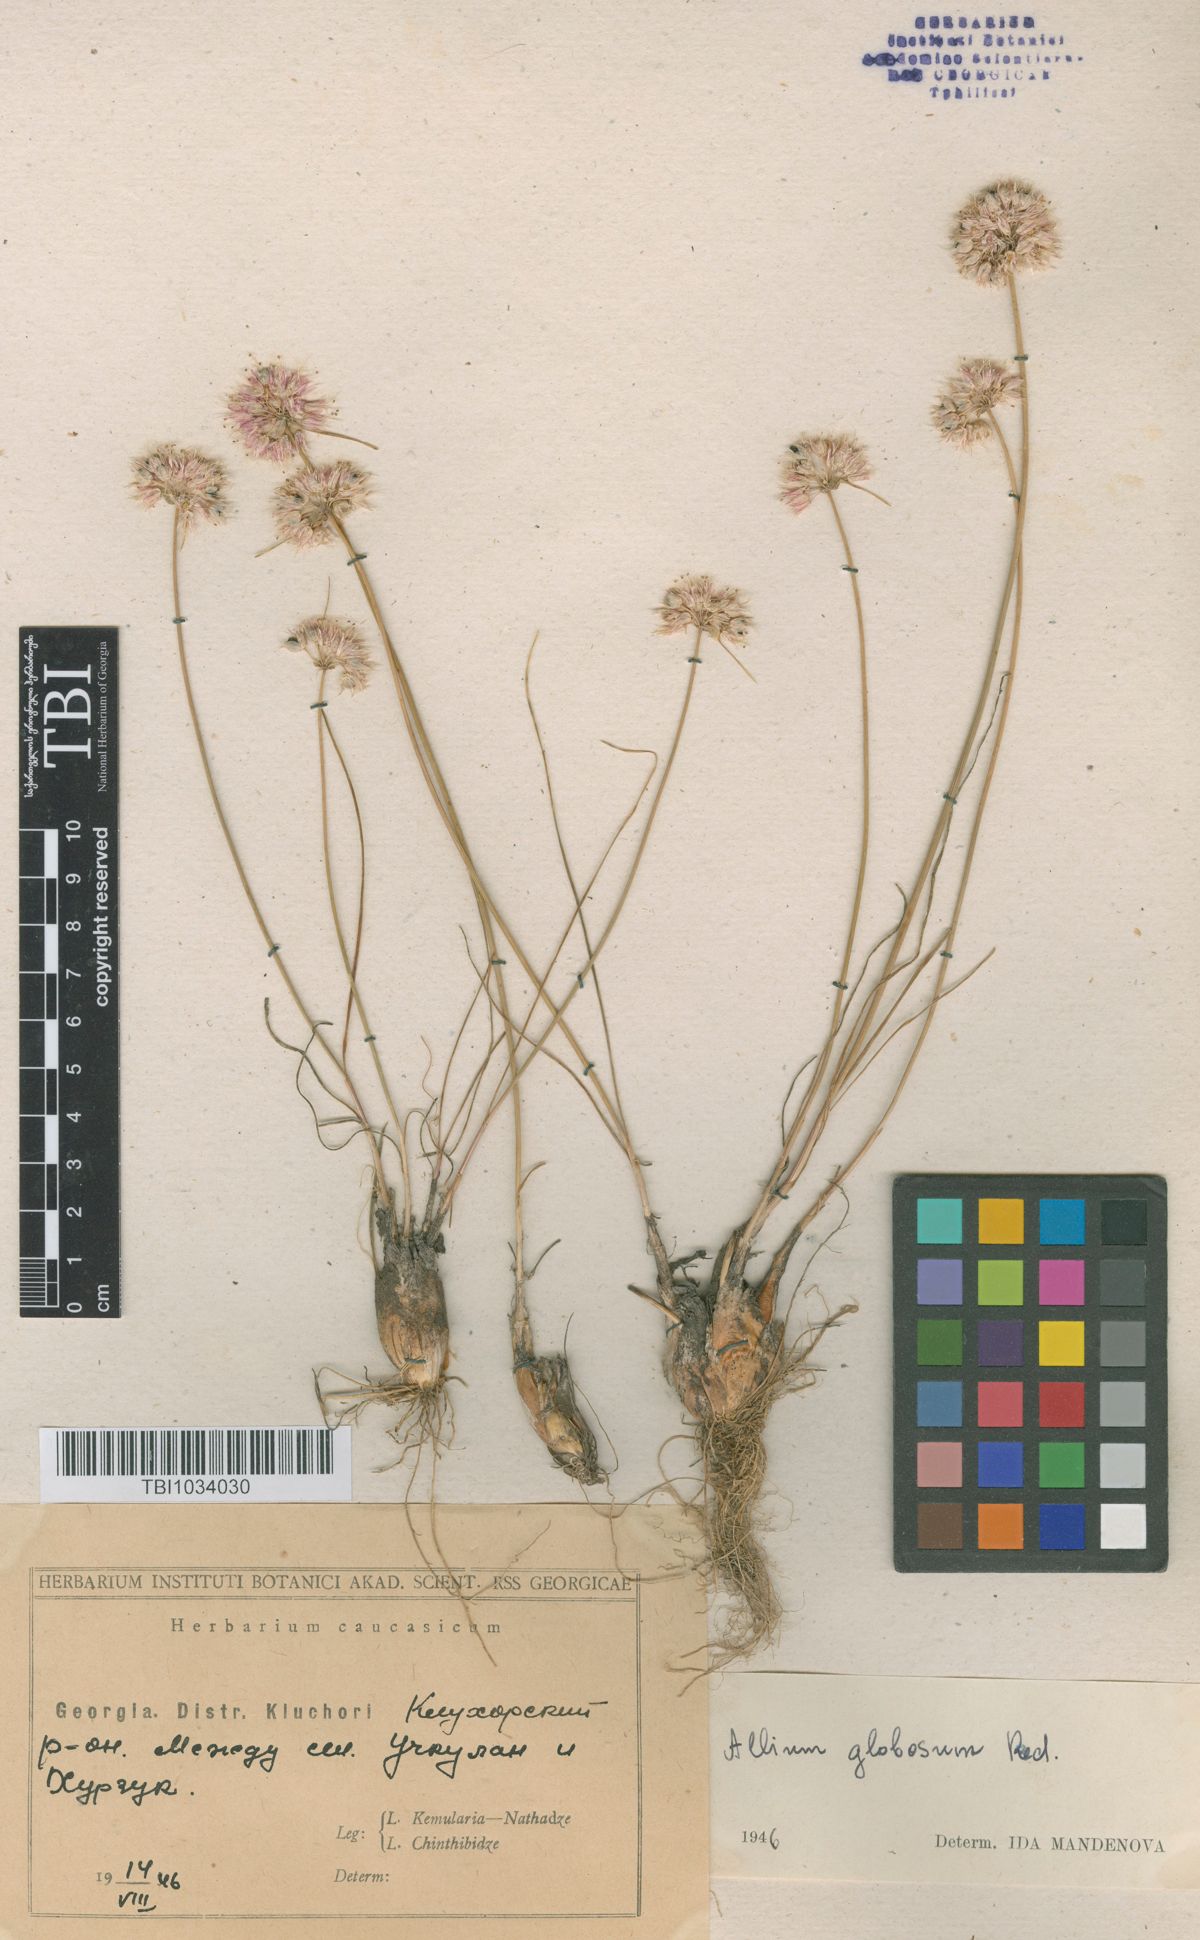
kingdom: Plantae
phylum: Tracheophyta
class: Liliopsida
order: Asparagales
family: Amaryllidaceae
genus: Allium
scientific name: Allium saxatile
